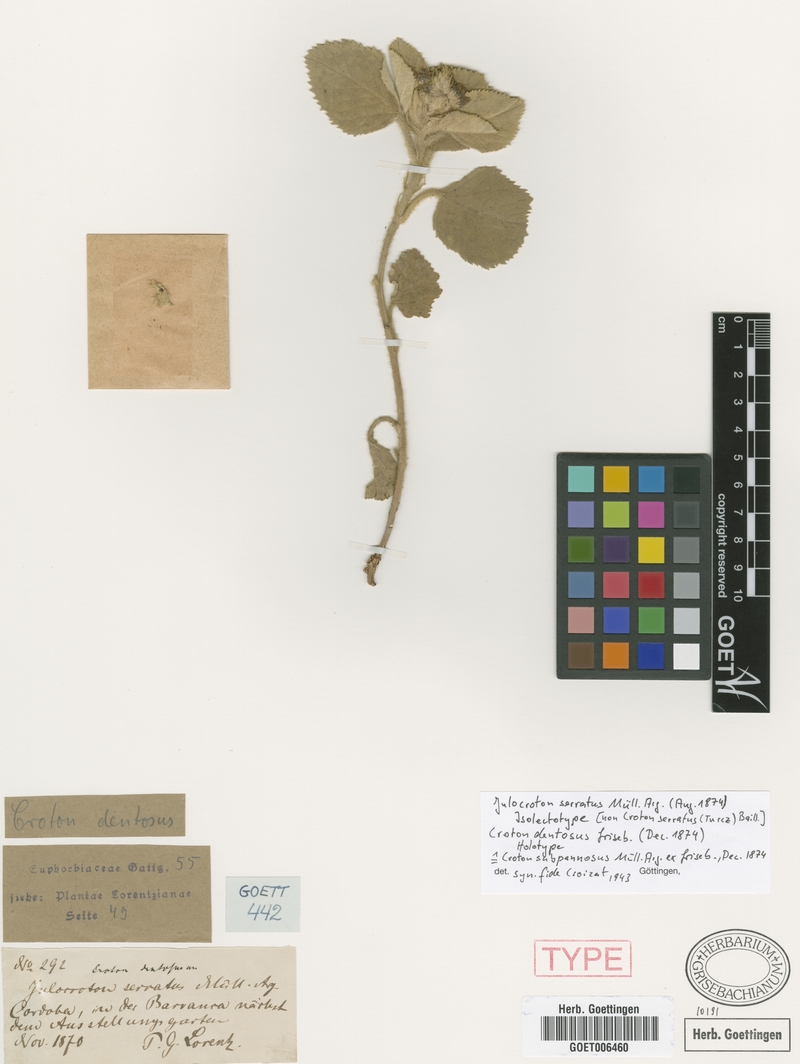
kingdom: Plantae
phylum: Tracheophyta
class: Magnoliopsida
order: Malpighiales
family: Euphorbiaceae
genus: Croton
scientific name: Croton subpannosus
